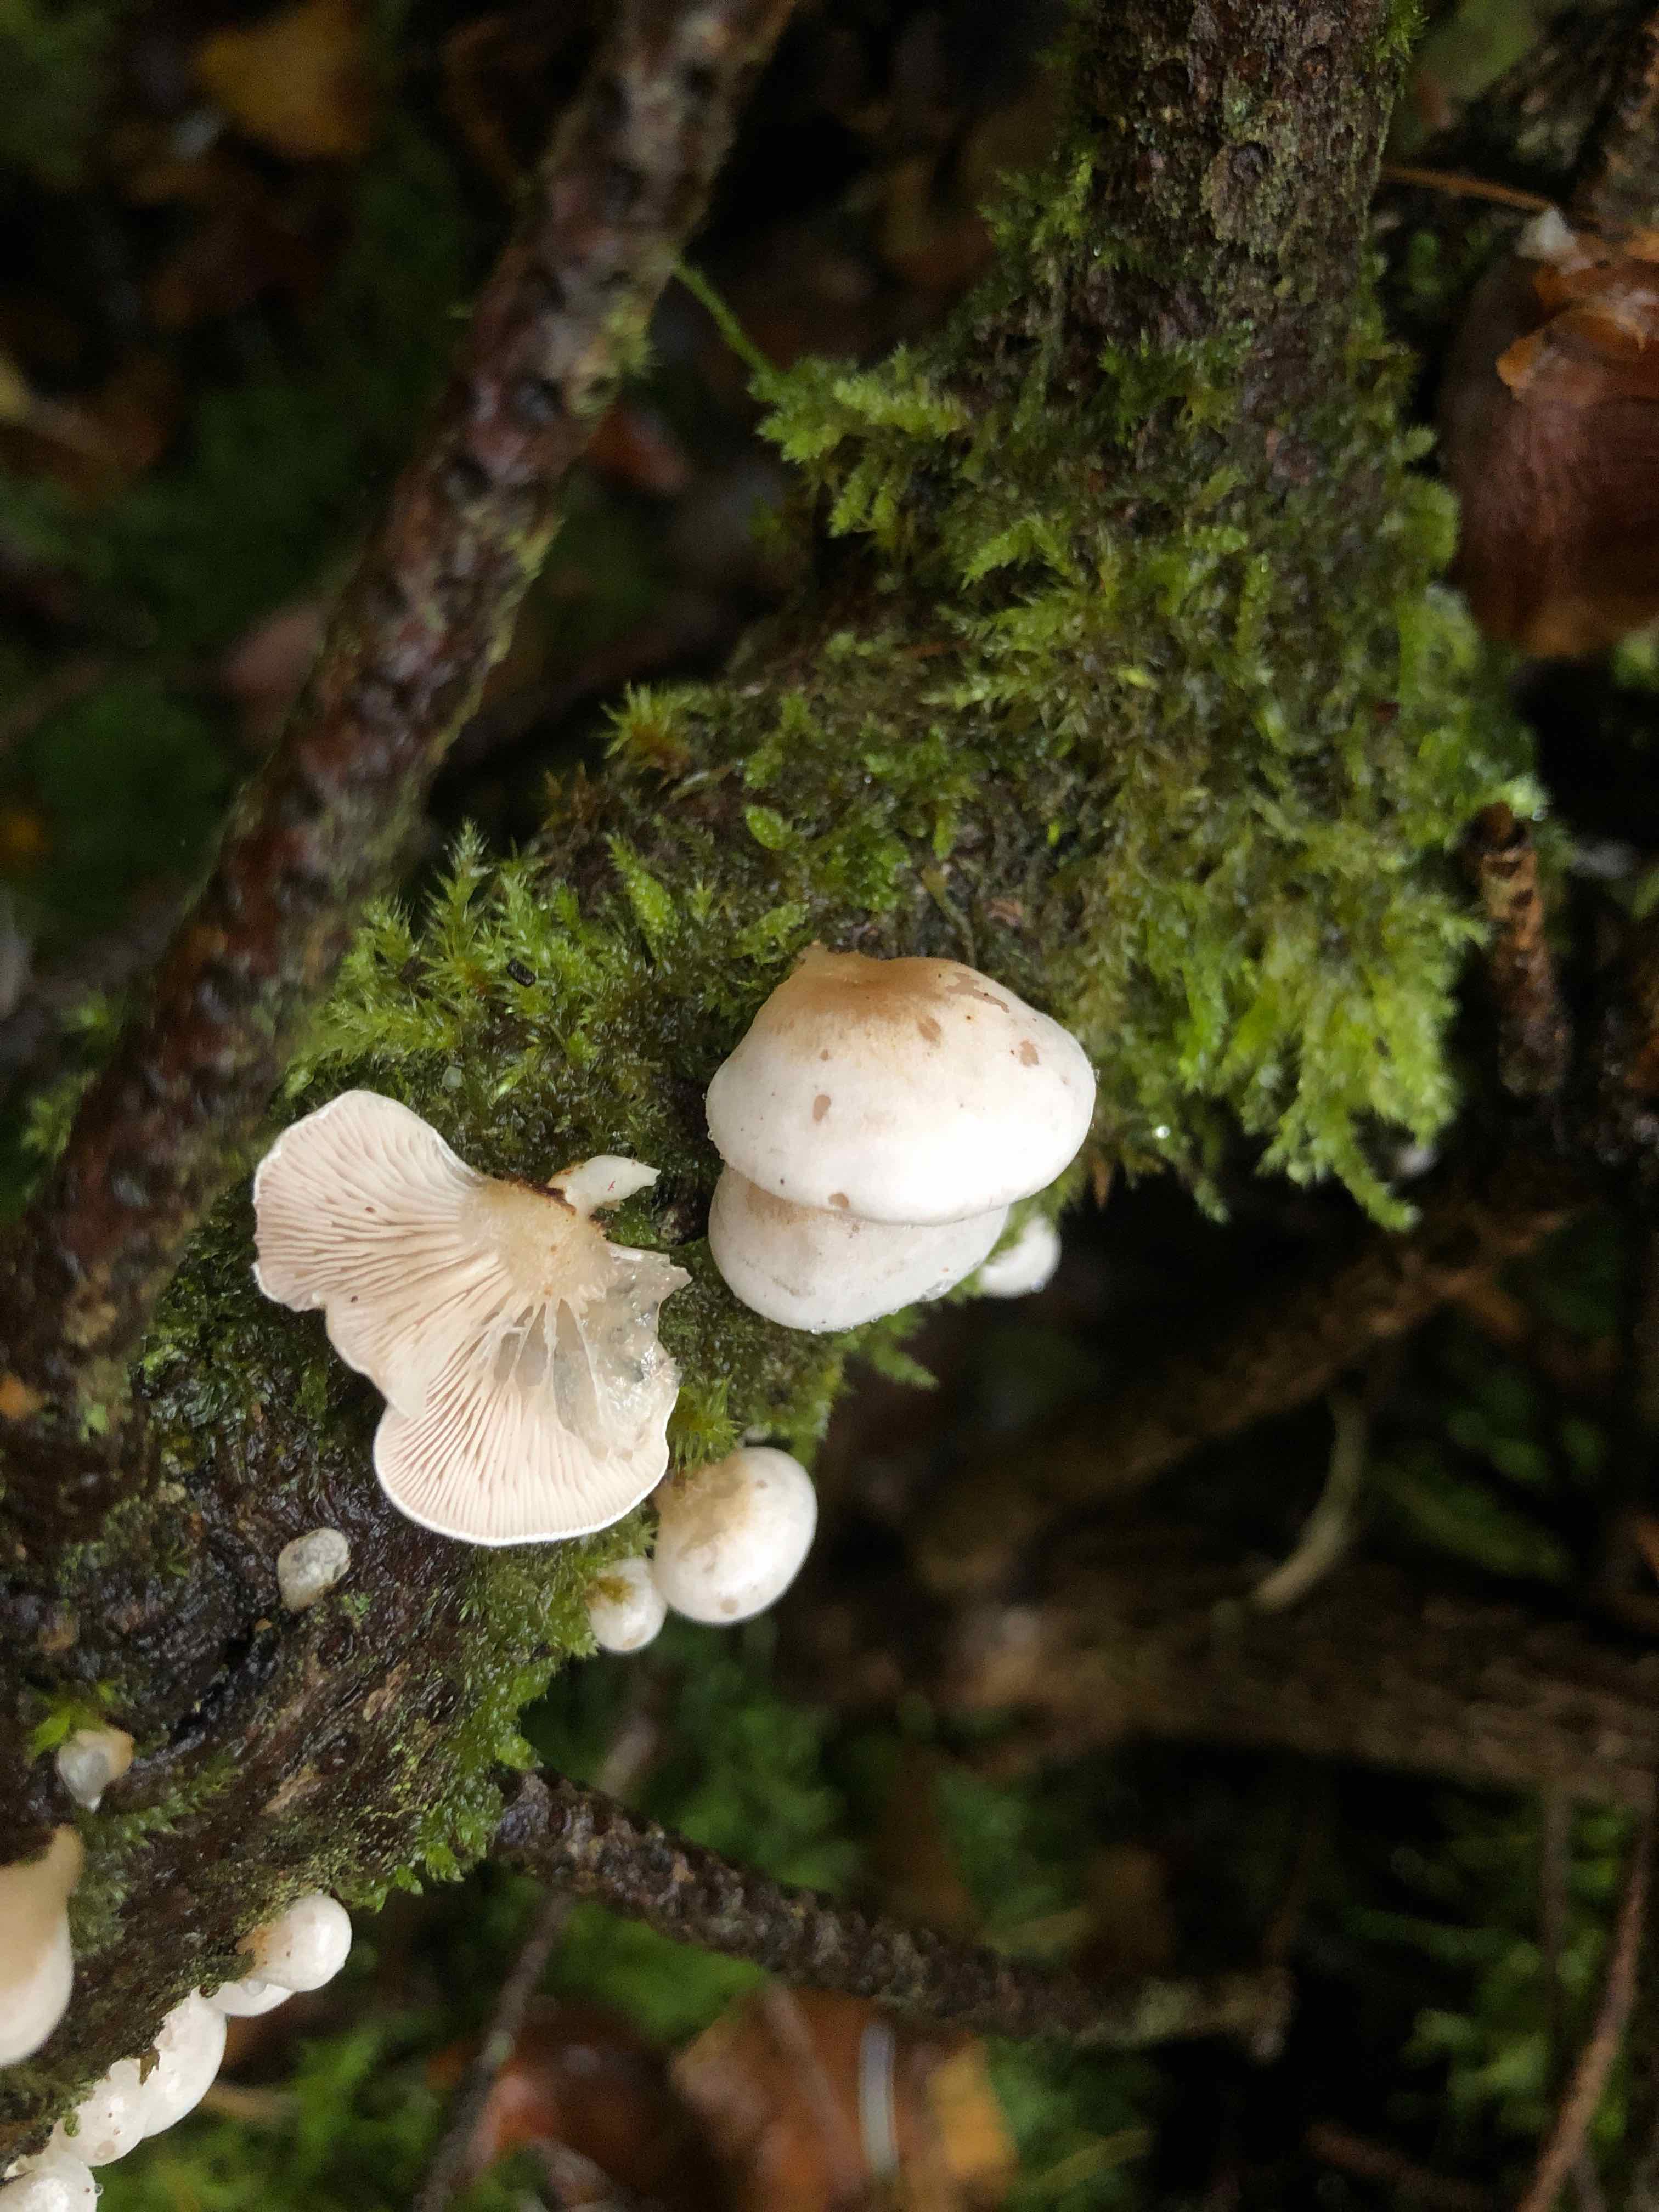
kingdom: Fungi
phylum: Basidiomycota
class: Agaricomycetes
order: Agaricales
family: Mycenaceae
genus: Panellus
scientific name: Panellus mitis
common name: mild epaulethat
